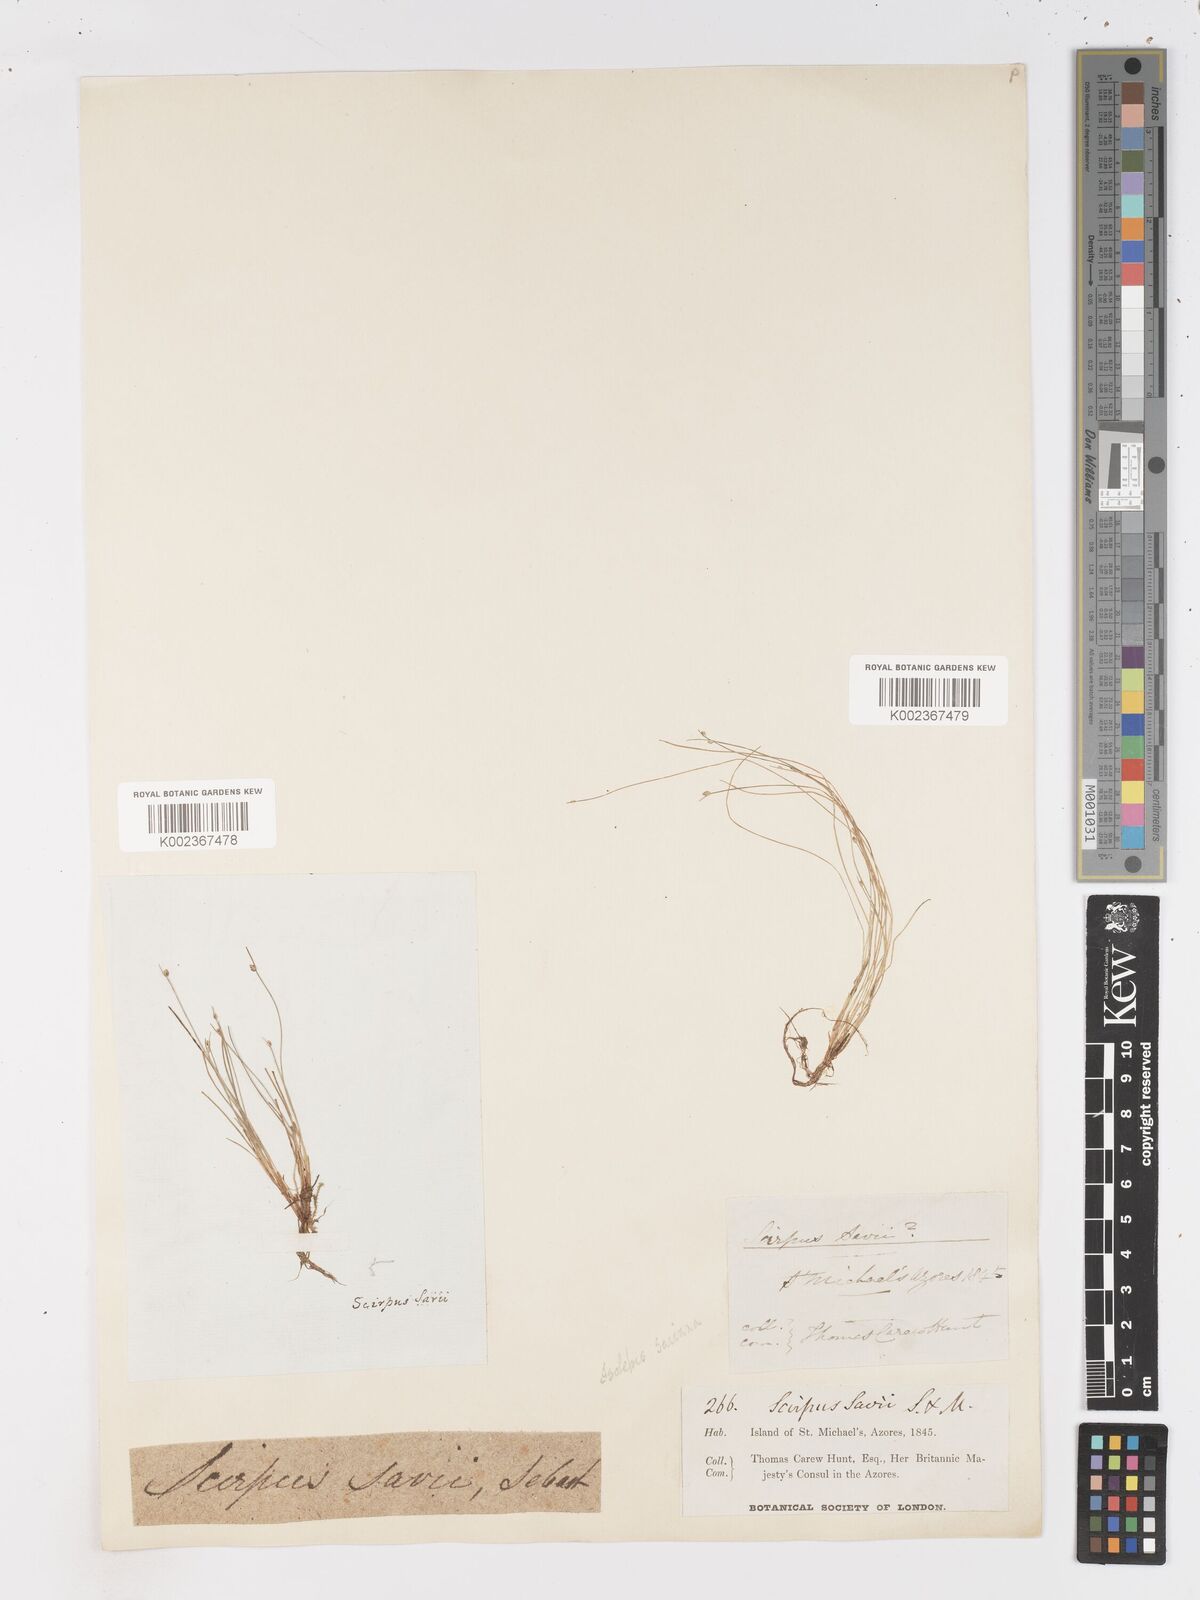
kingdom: Plantae
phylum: Tracheophyta
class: Liliopsida
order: Poales
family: Cyperaceae
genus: Isolepis
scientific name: Isolepis cernua
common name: Slender club-rush
